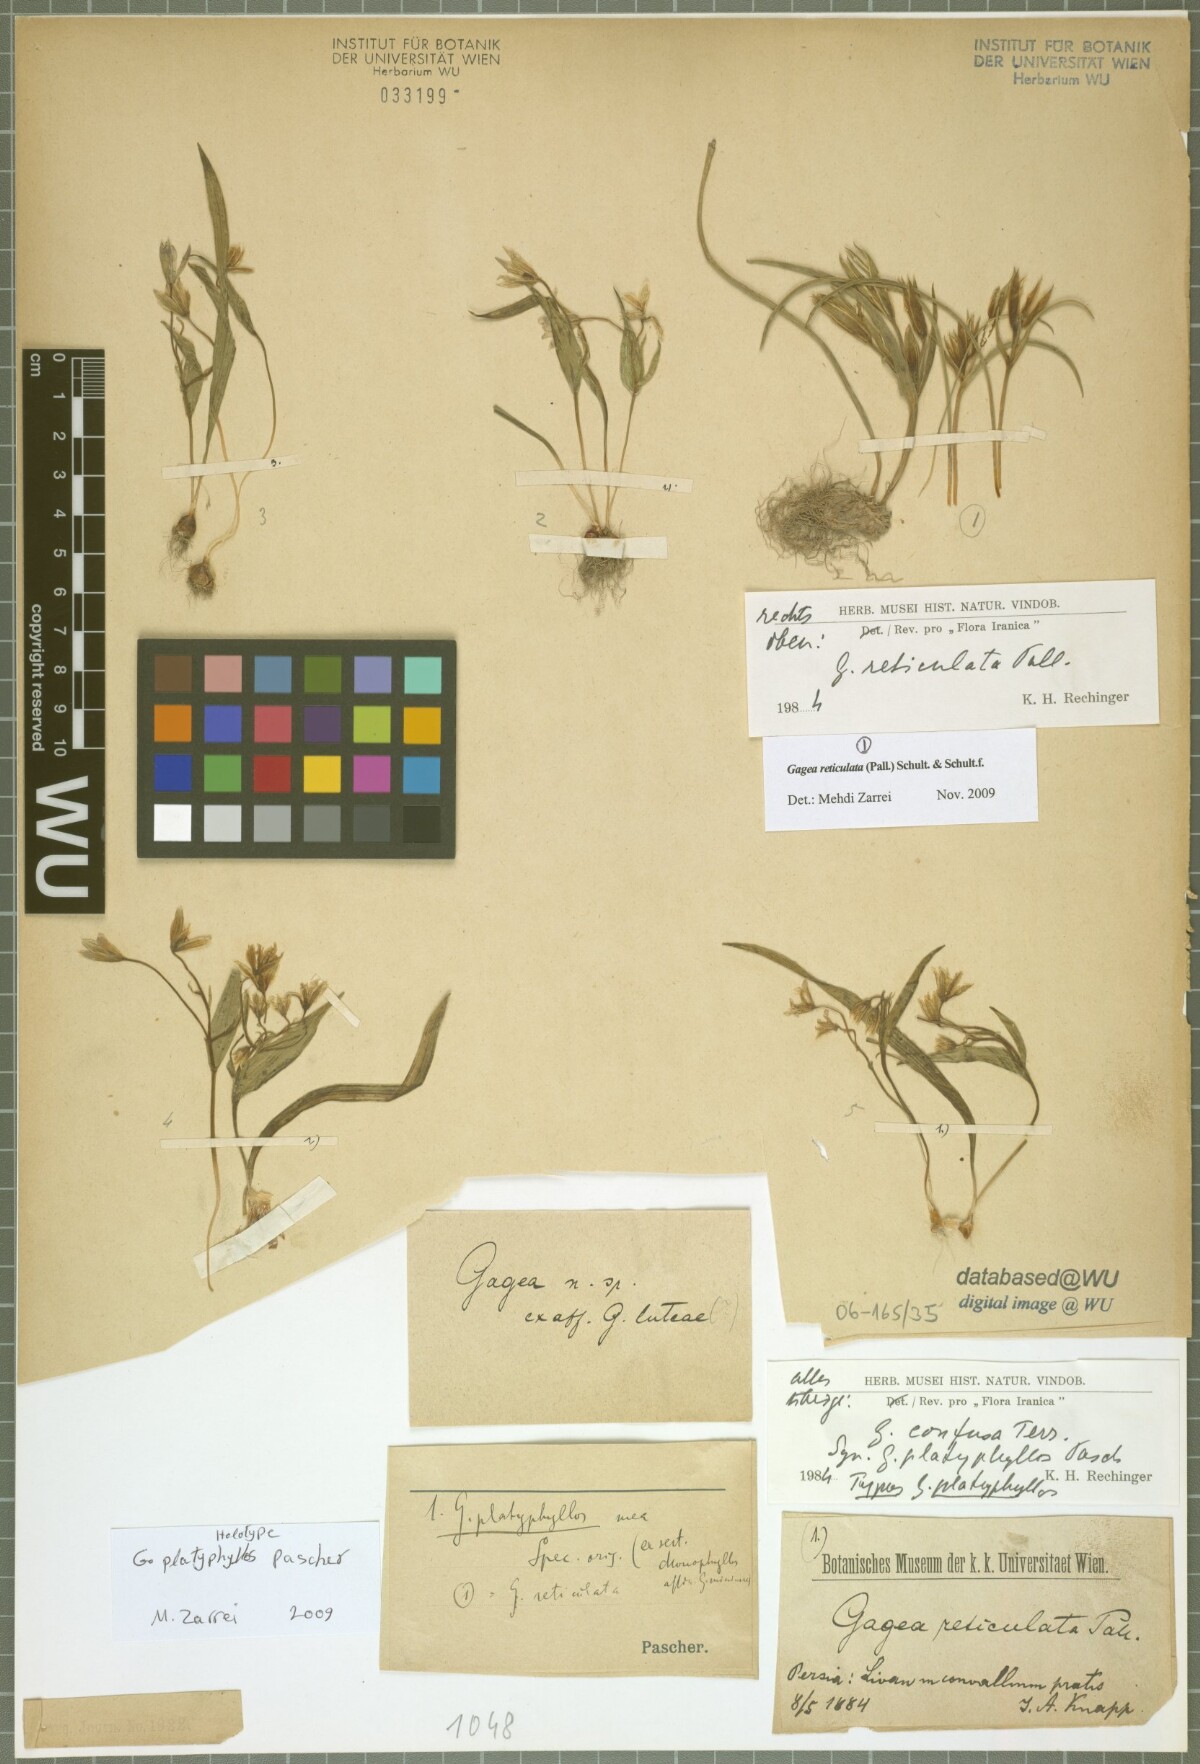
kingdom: Plantae
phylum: Tracheophyta
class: Liliopsida
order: Liliales
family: Liliaceae
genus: Gagea
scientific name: Gagea confusa
